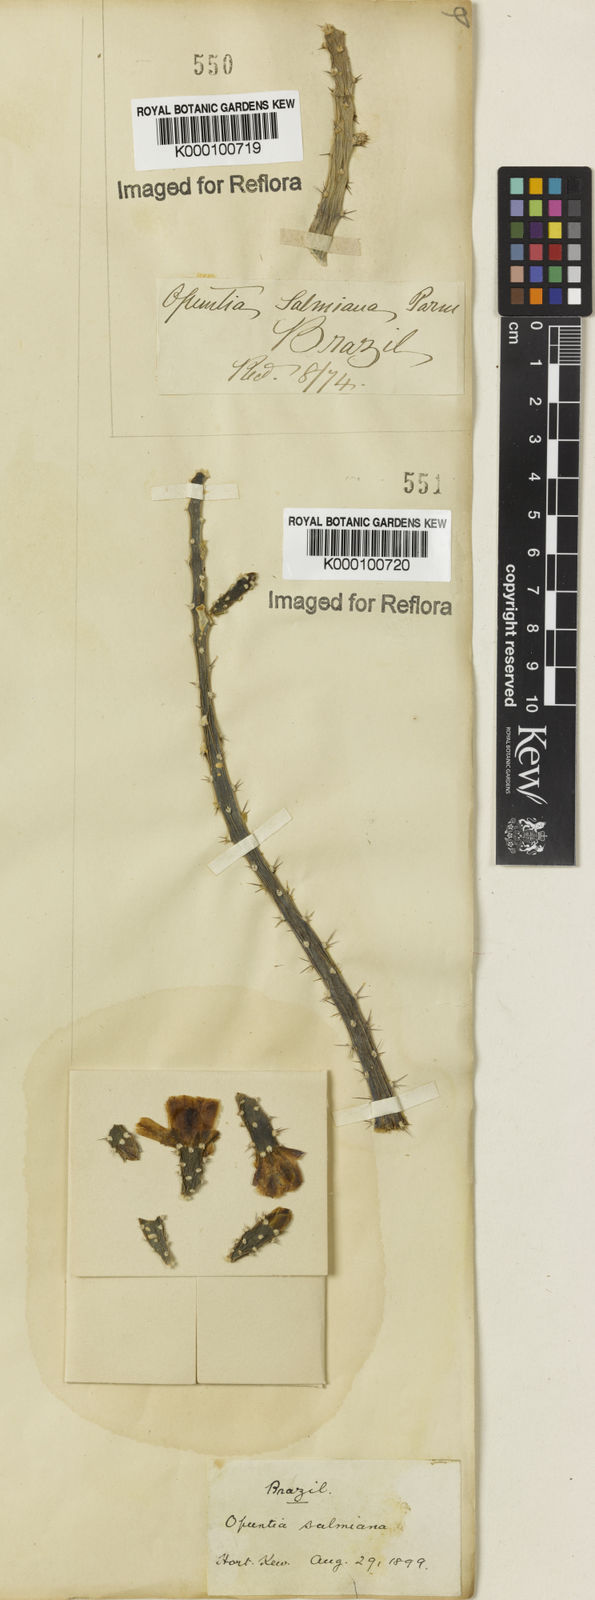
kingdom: Plantae
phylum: Tracheophyta
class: Magnoliopsida
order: Caryophyllales
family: Cactaceae
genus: Salmonopuntia
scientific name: Salmonopuntia salmiana
